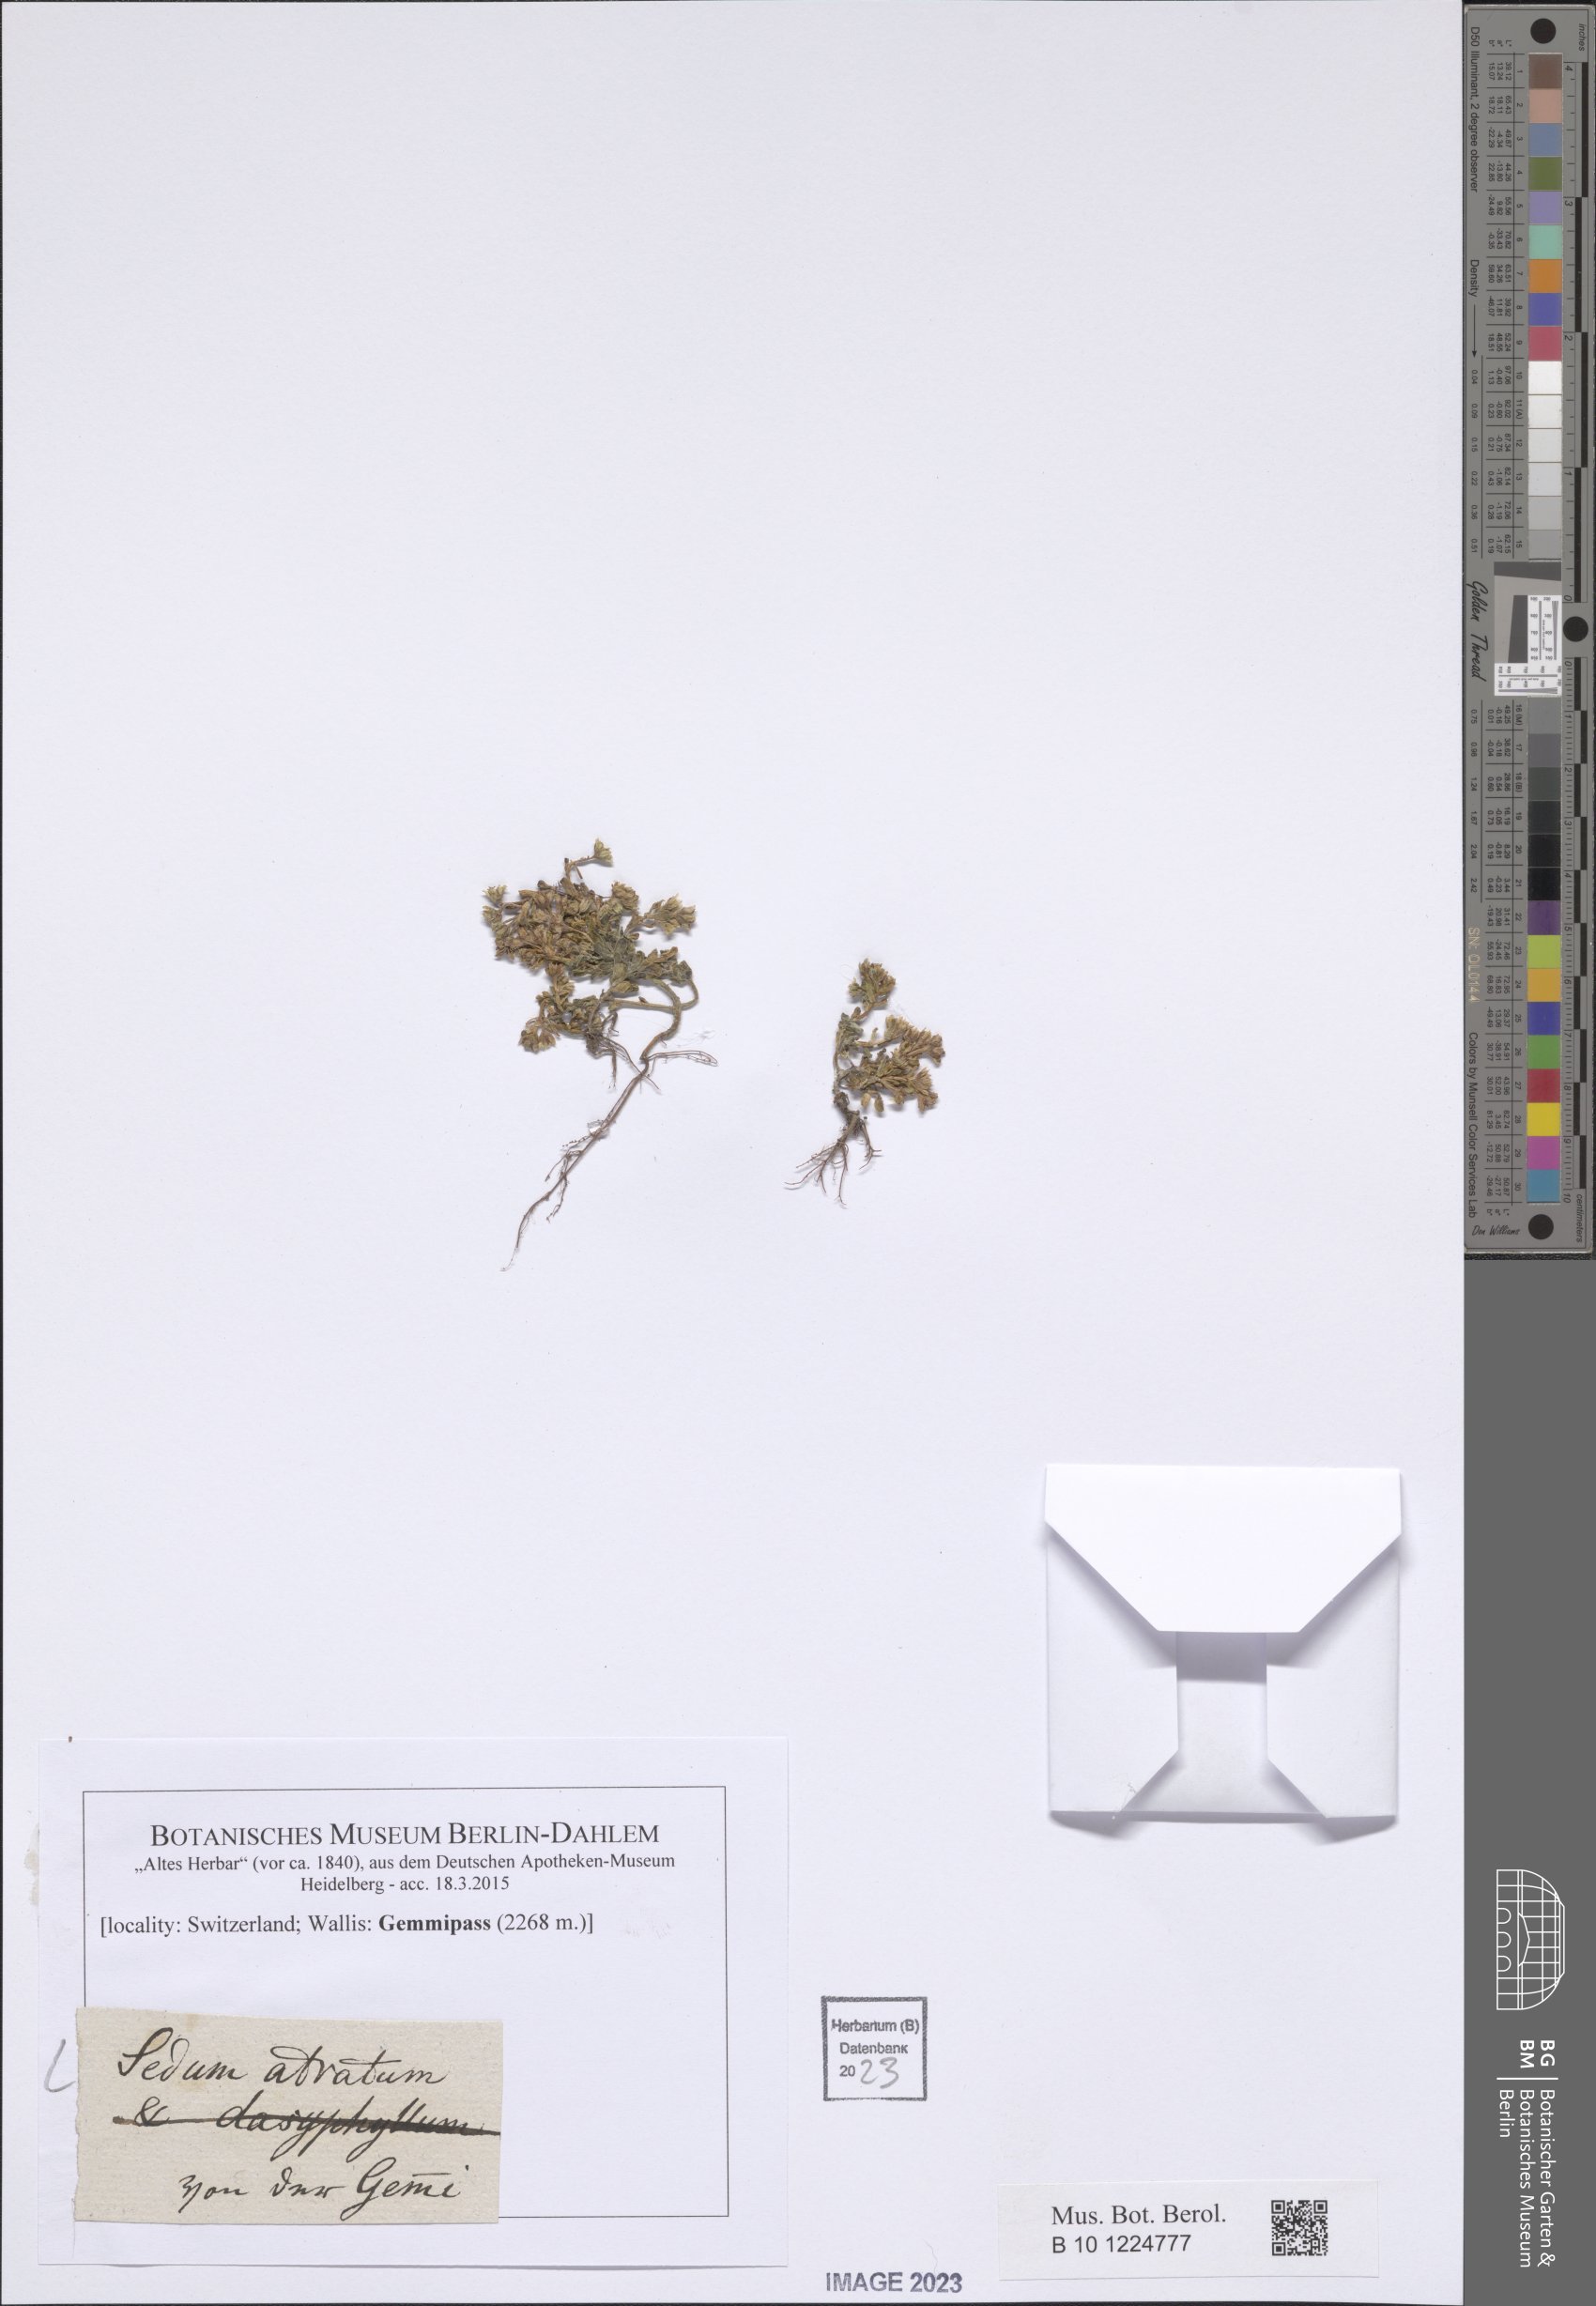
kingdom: Plantae
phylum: Tracheophyta
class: Magnoliopsida
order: Saxifragales
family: Crassulaceae
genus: Sedum
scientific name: Sedum atratum
